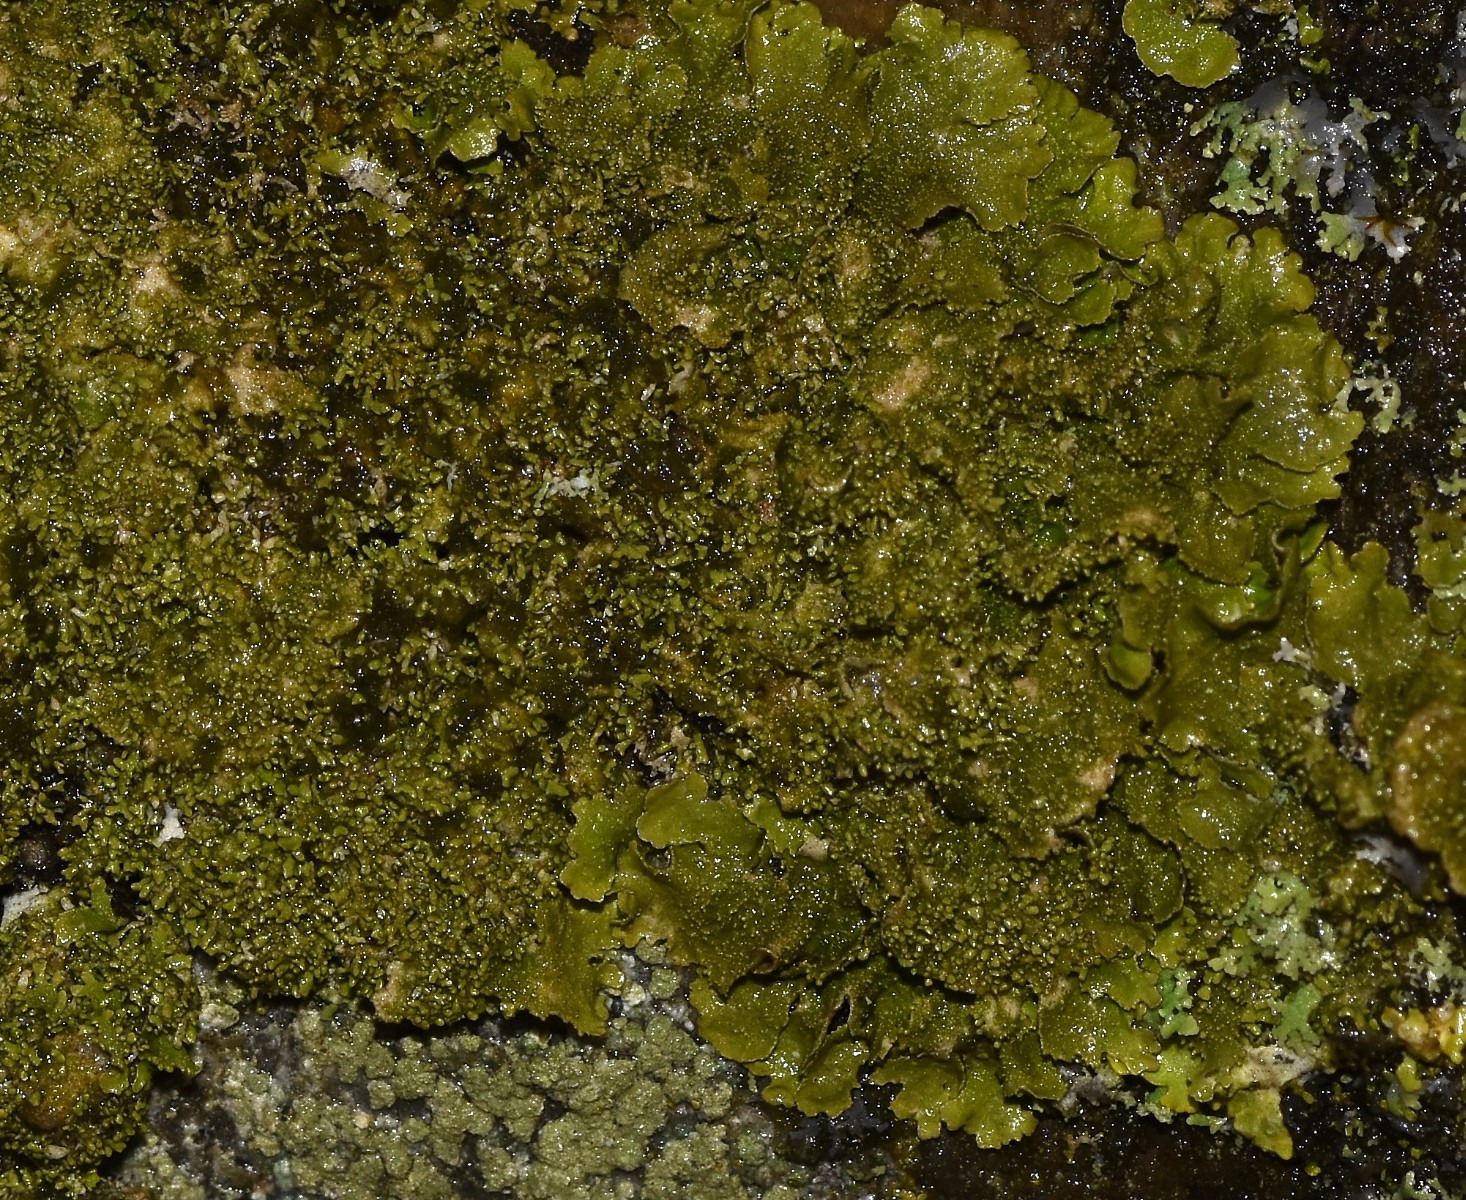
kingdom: Fungi
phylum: Ascomycota
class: Lecanoromycetes
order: Lecanorales
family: Parmeliaceae
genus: Melanohalea
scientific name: Melanohalea exasperatula
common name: kølle-skållav
